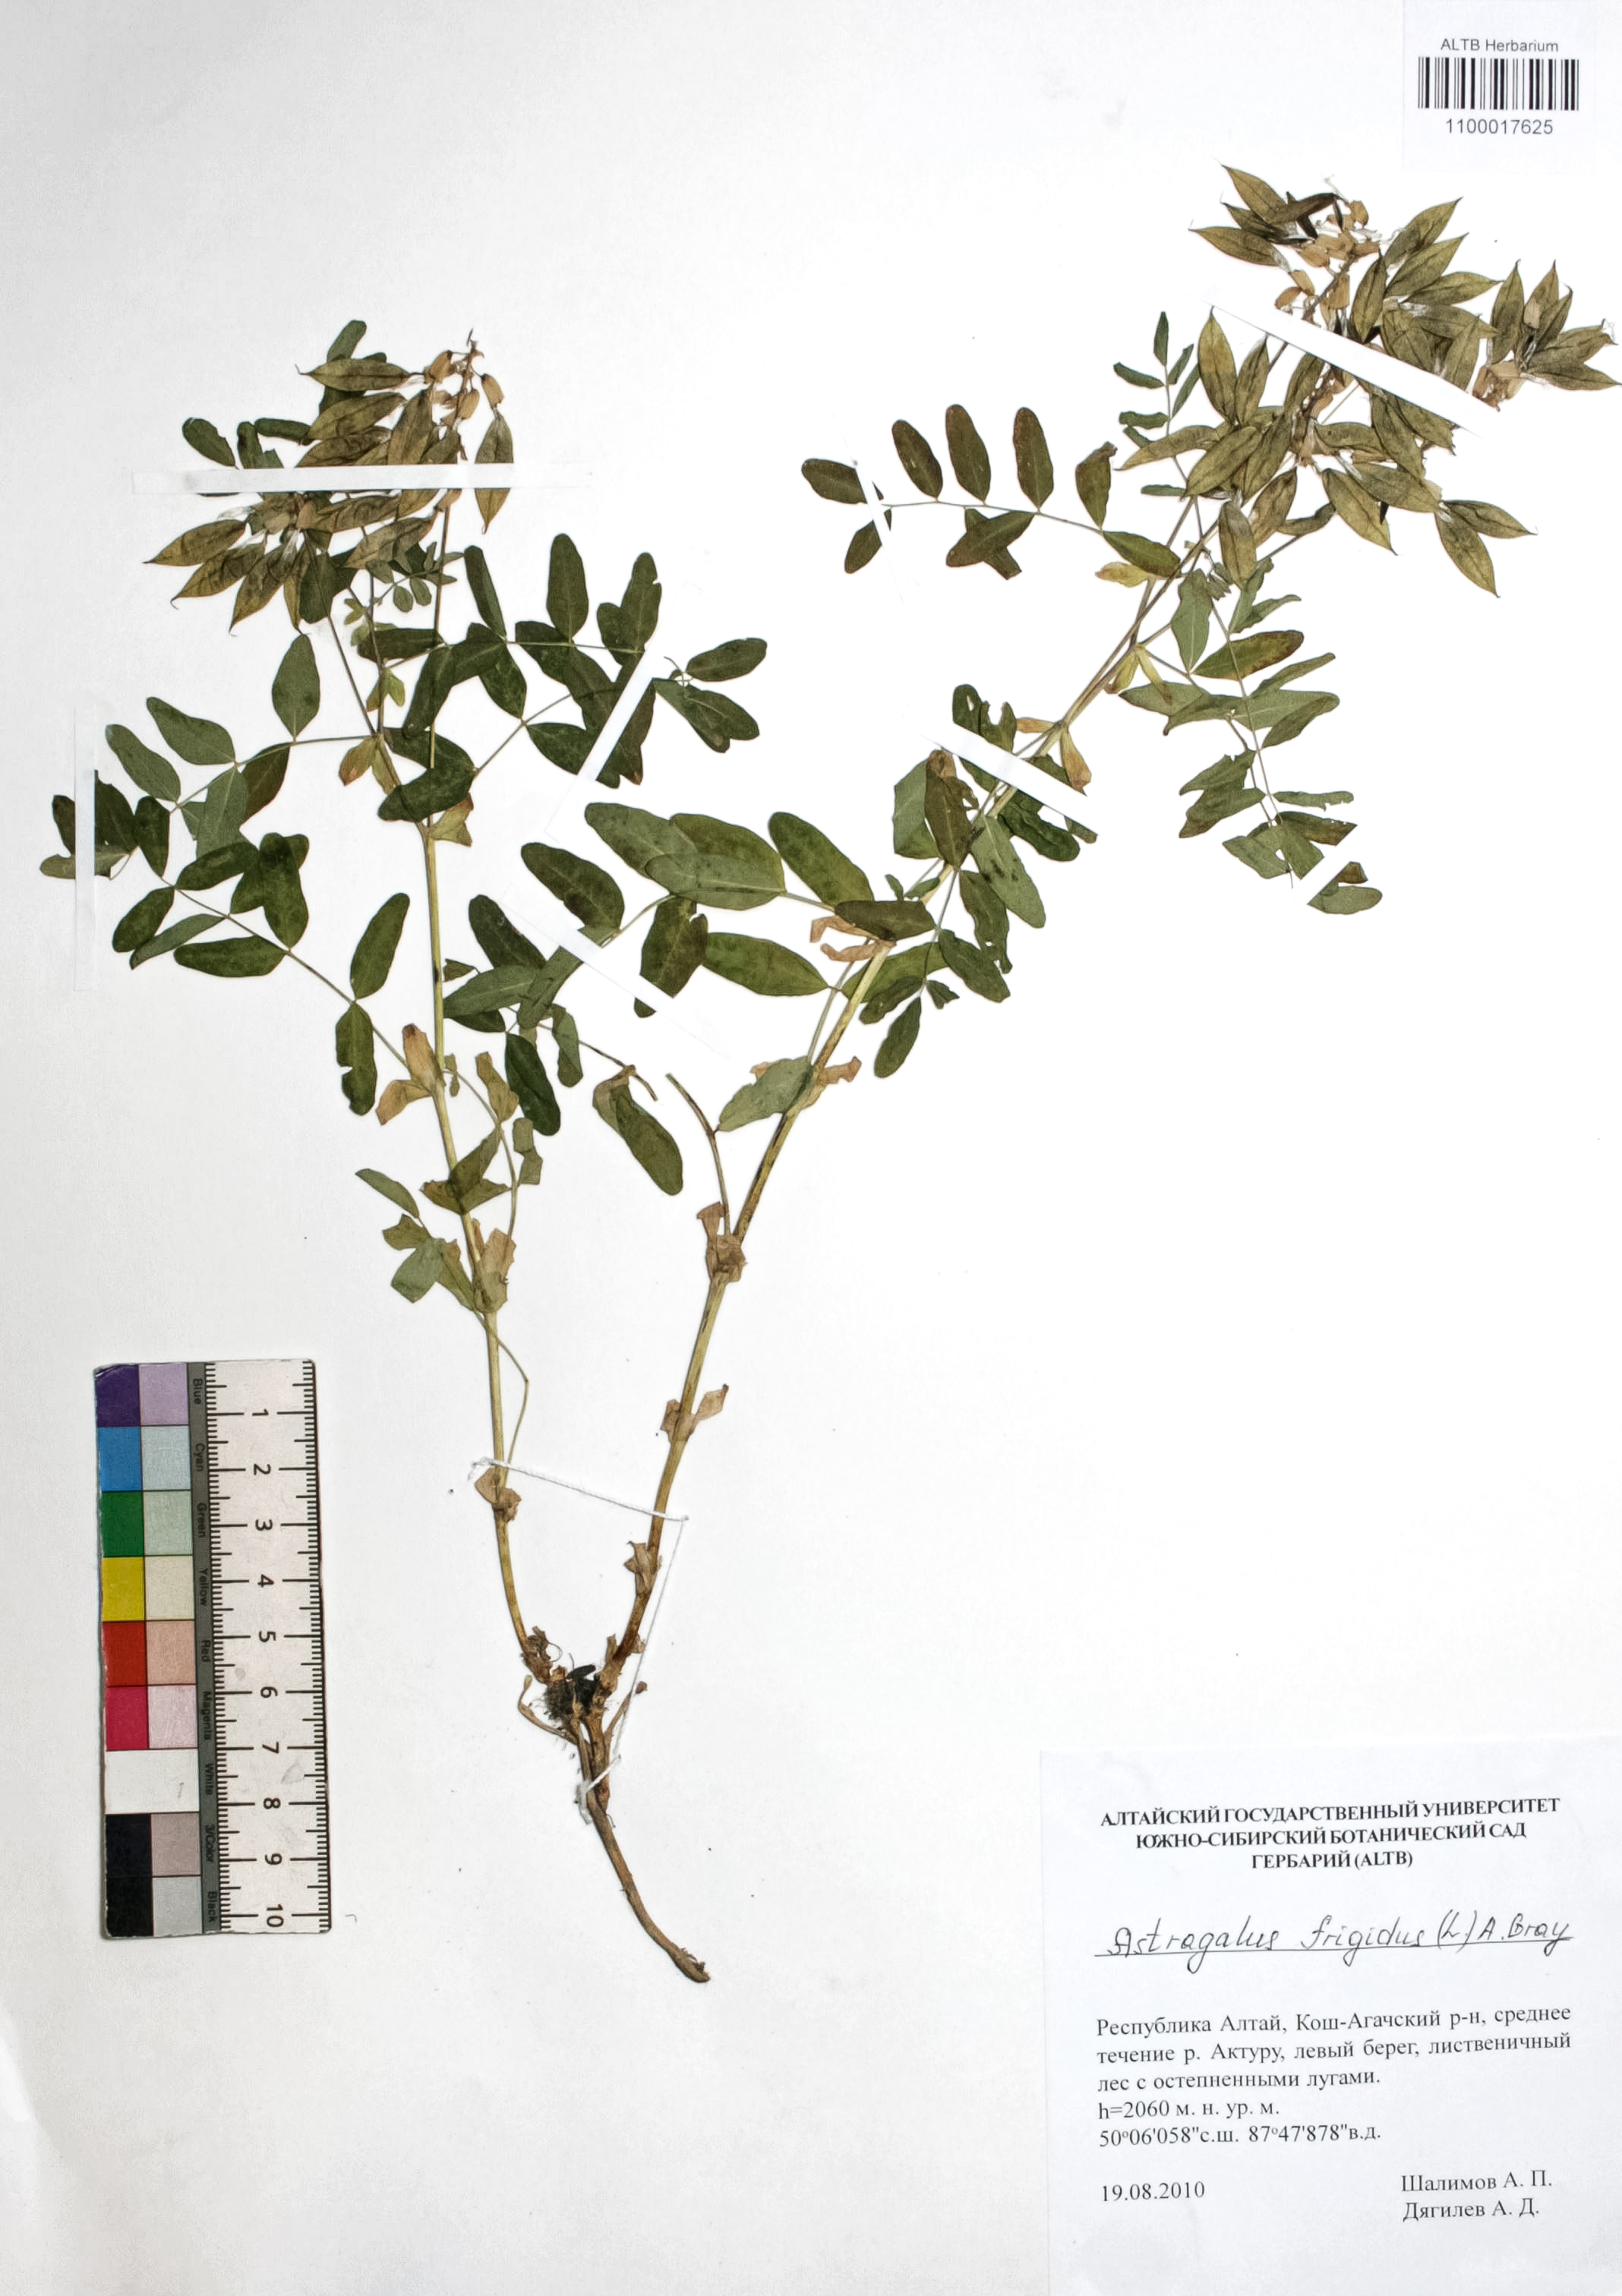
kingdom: Plantae
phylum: Tracheophyta
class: Magnoliopsida
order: Fabales
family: Fabaceae
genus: Astragalus
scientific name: Astragalus frigidus
